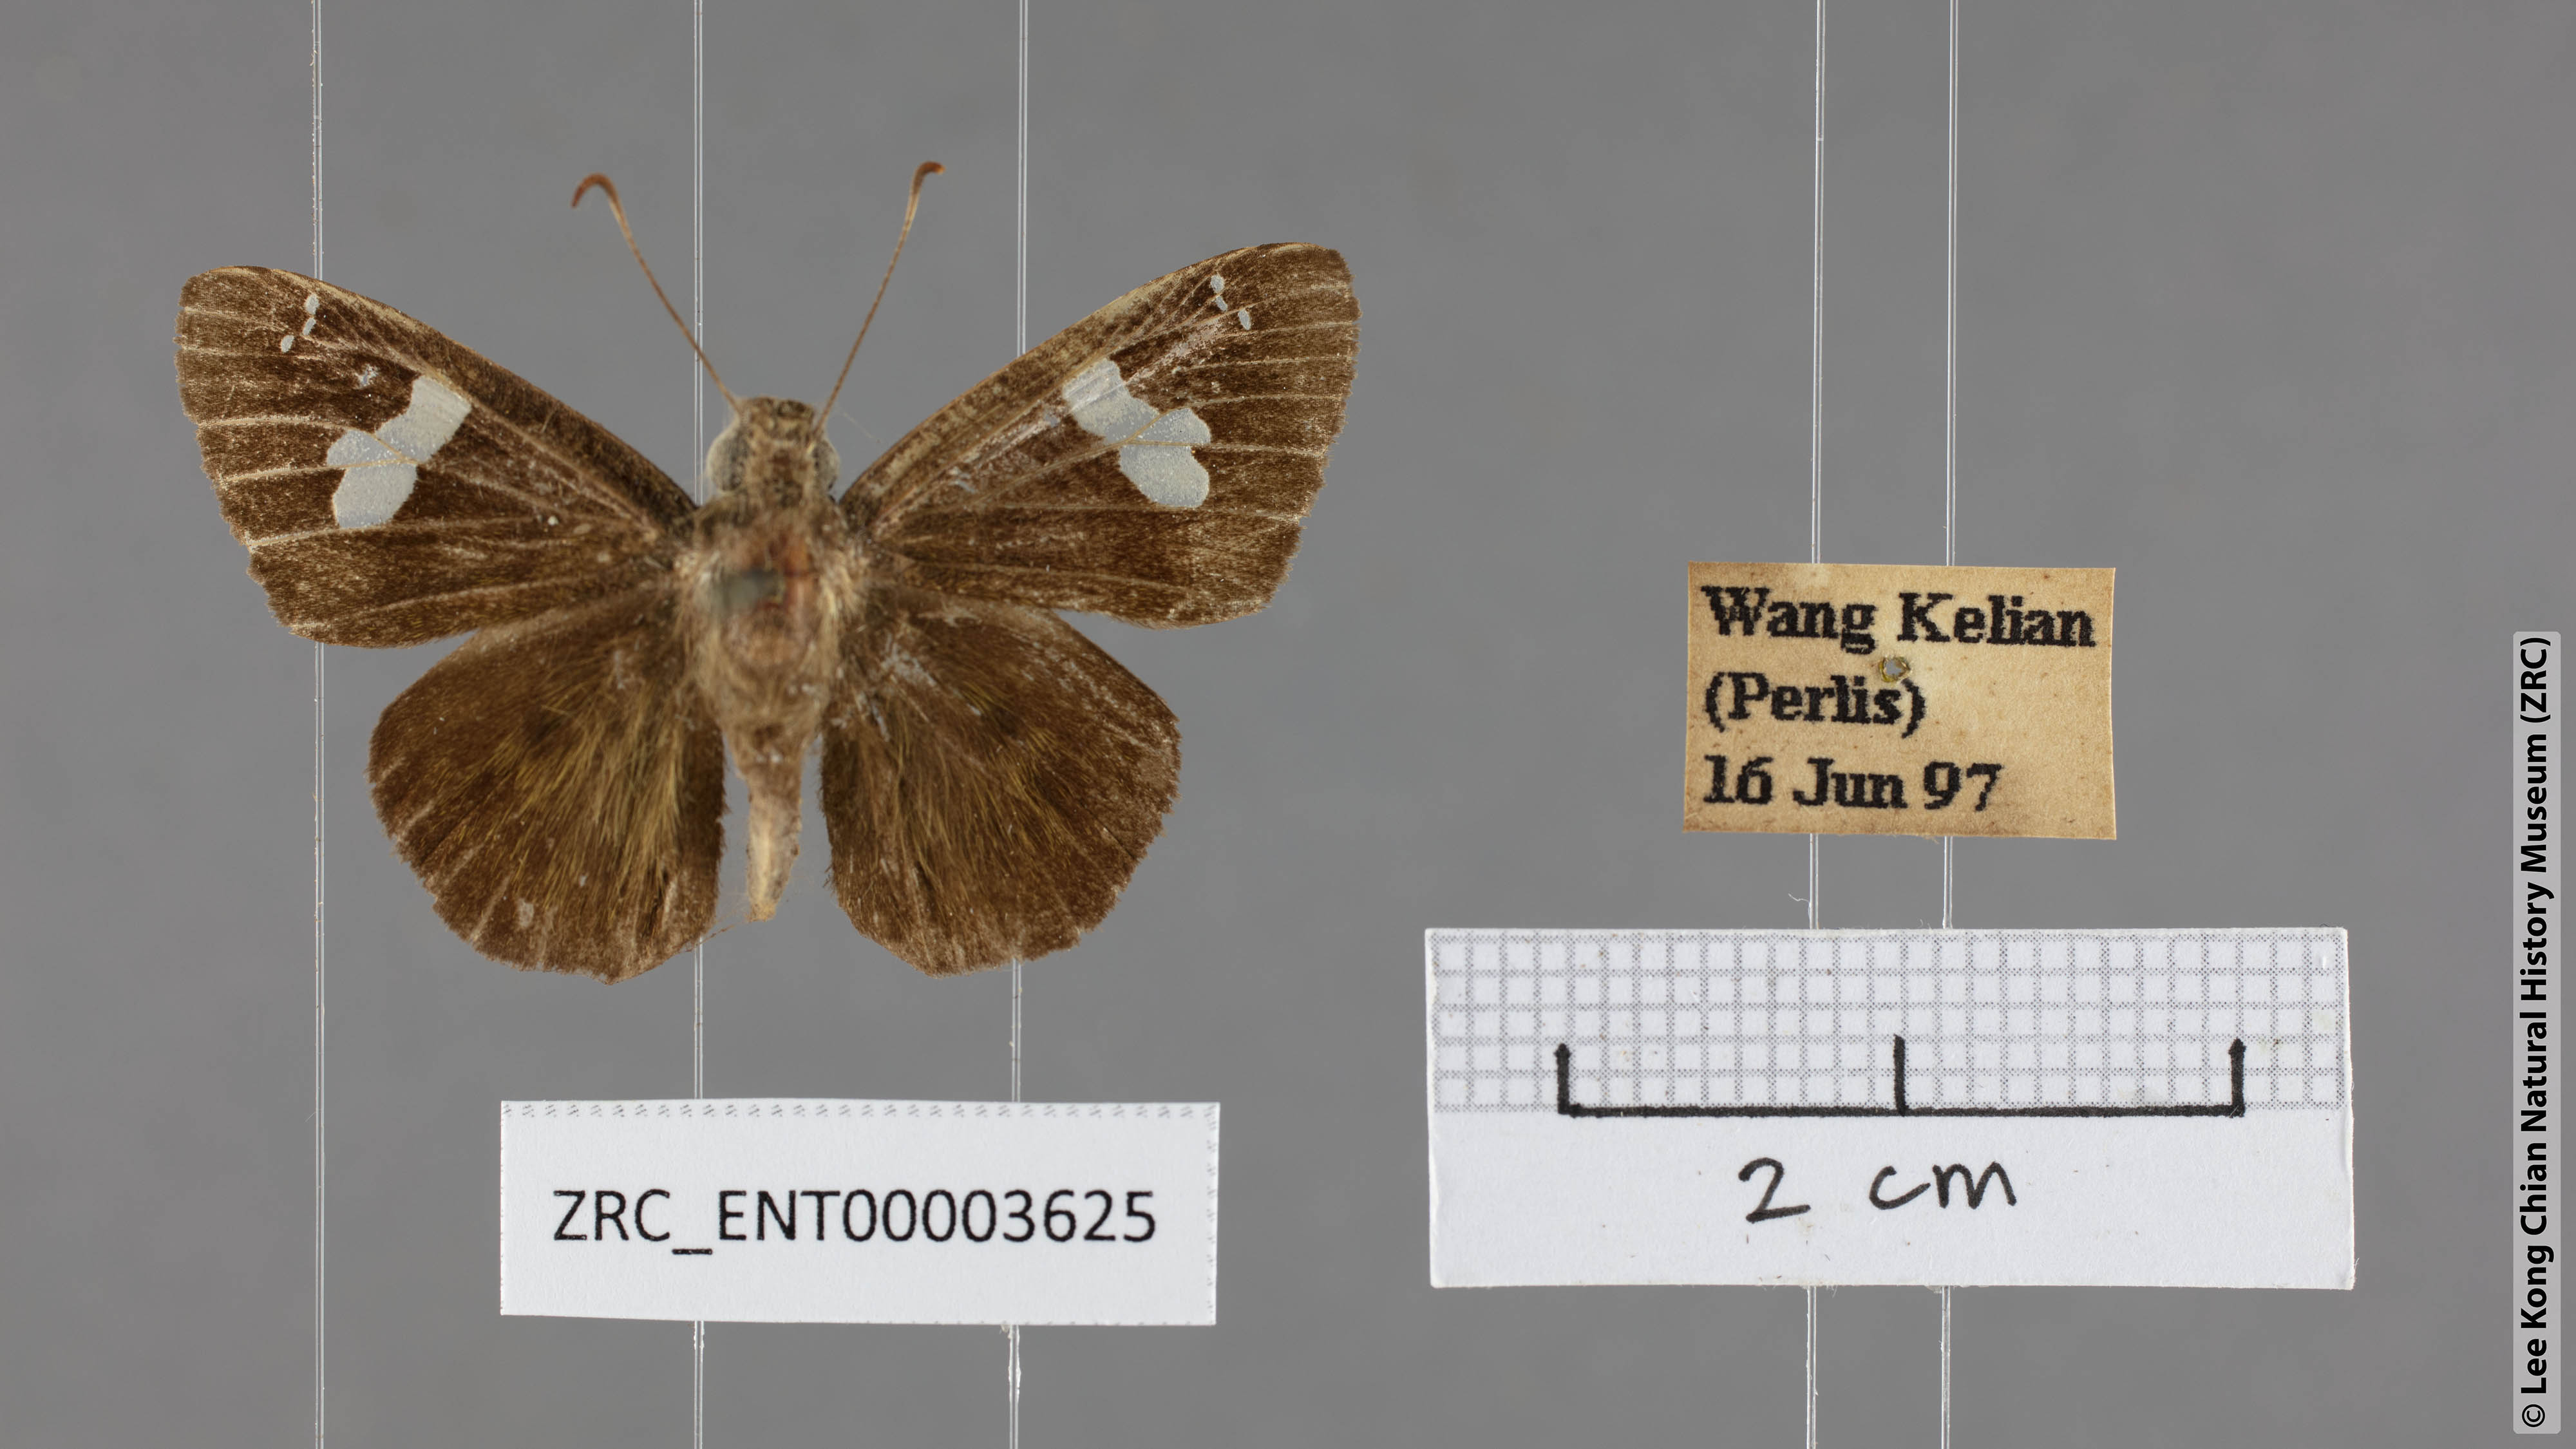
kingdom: Animalia
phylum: Arthropoda
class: Insecta
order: Lepidoptera
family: Hesperiidae
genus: Celaenorrhinus
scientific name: Celaenorrhinus asmara
